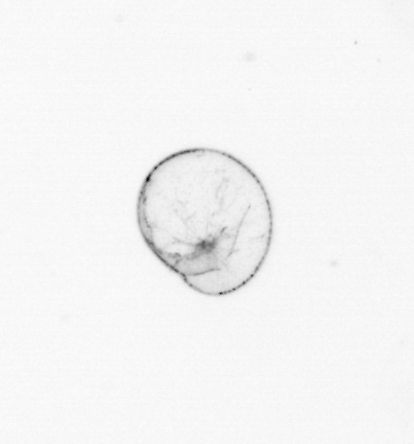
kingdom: Chromista
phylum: Myzozoa
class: Dinophyceae
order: Noctilucales
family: Noctilucaceae
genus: Noctiluca
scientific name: Noctiluca scintillans
